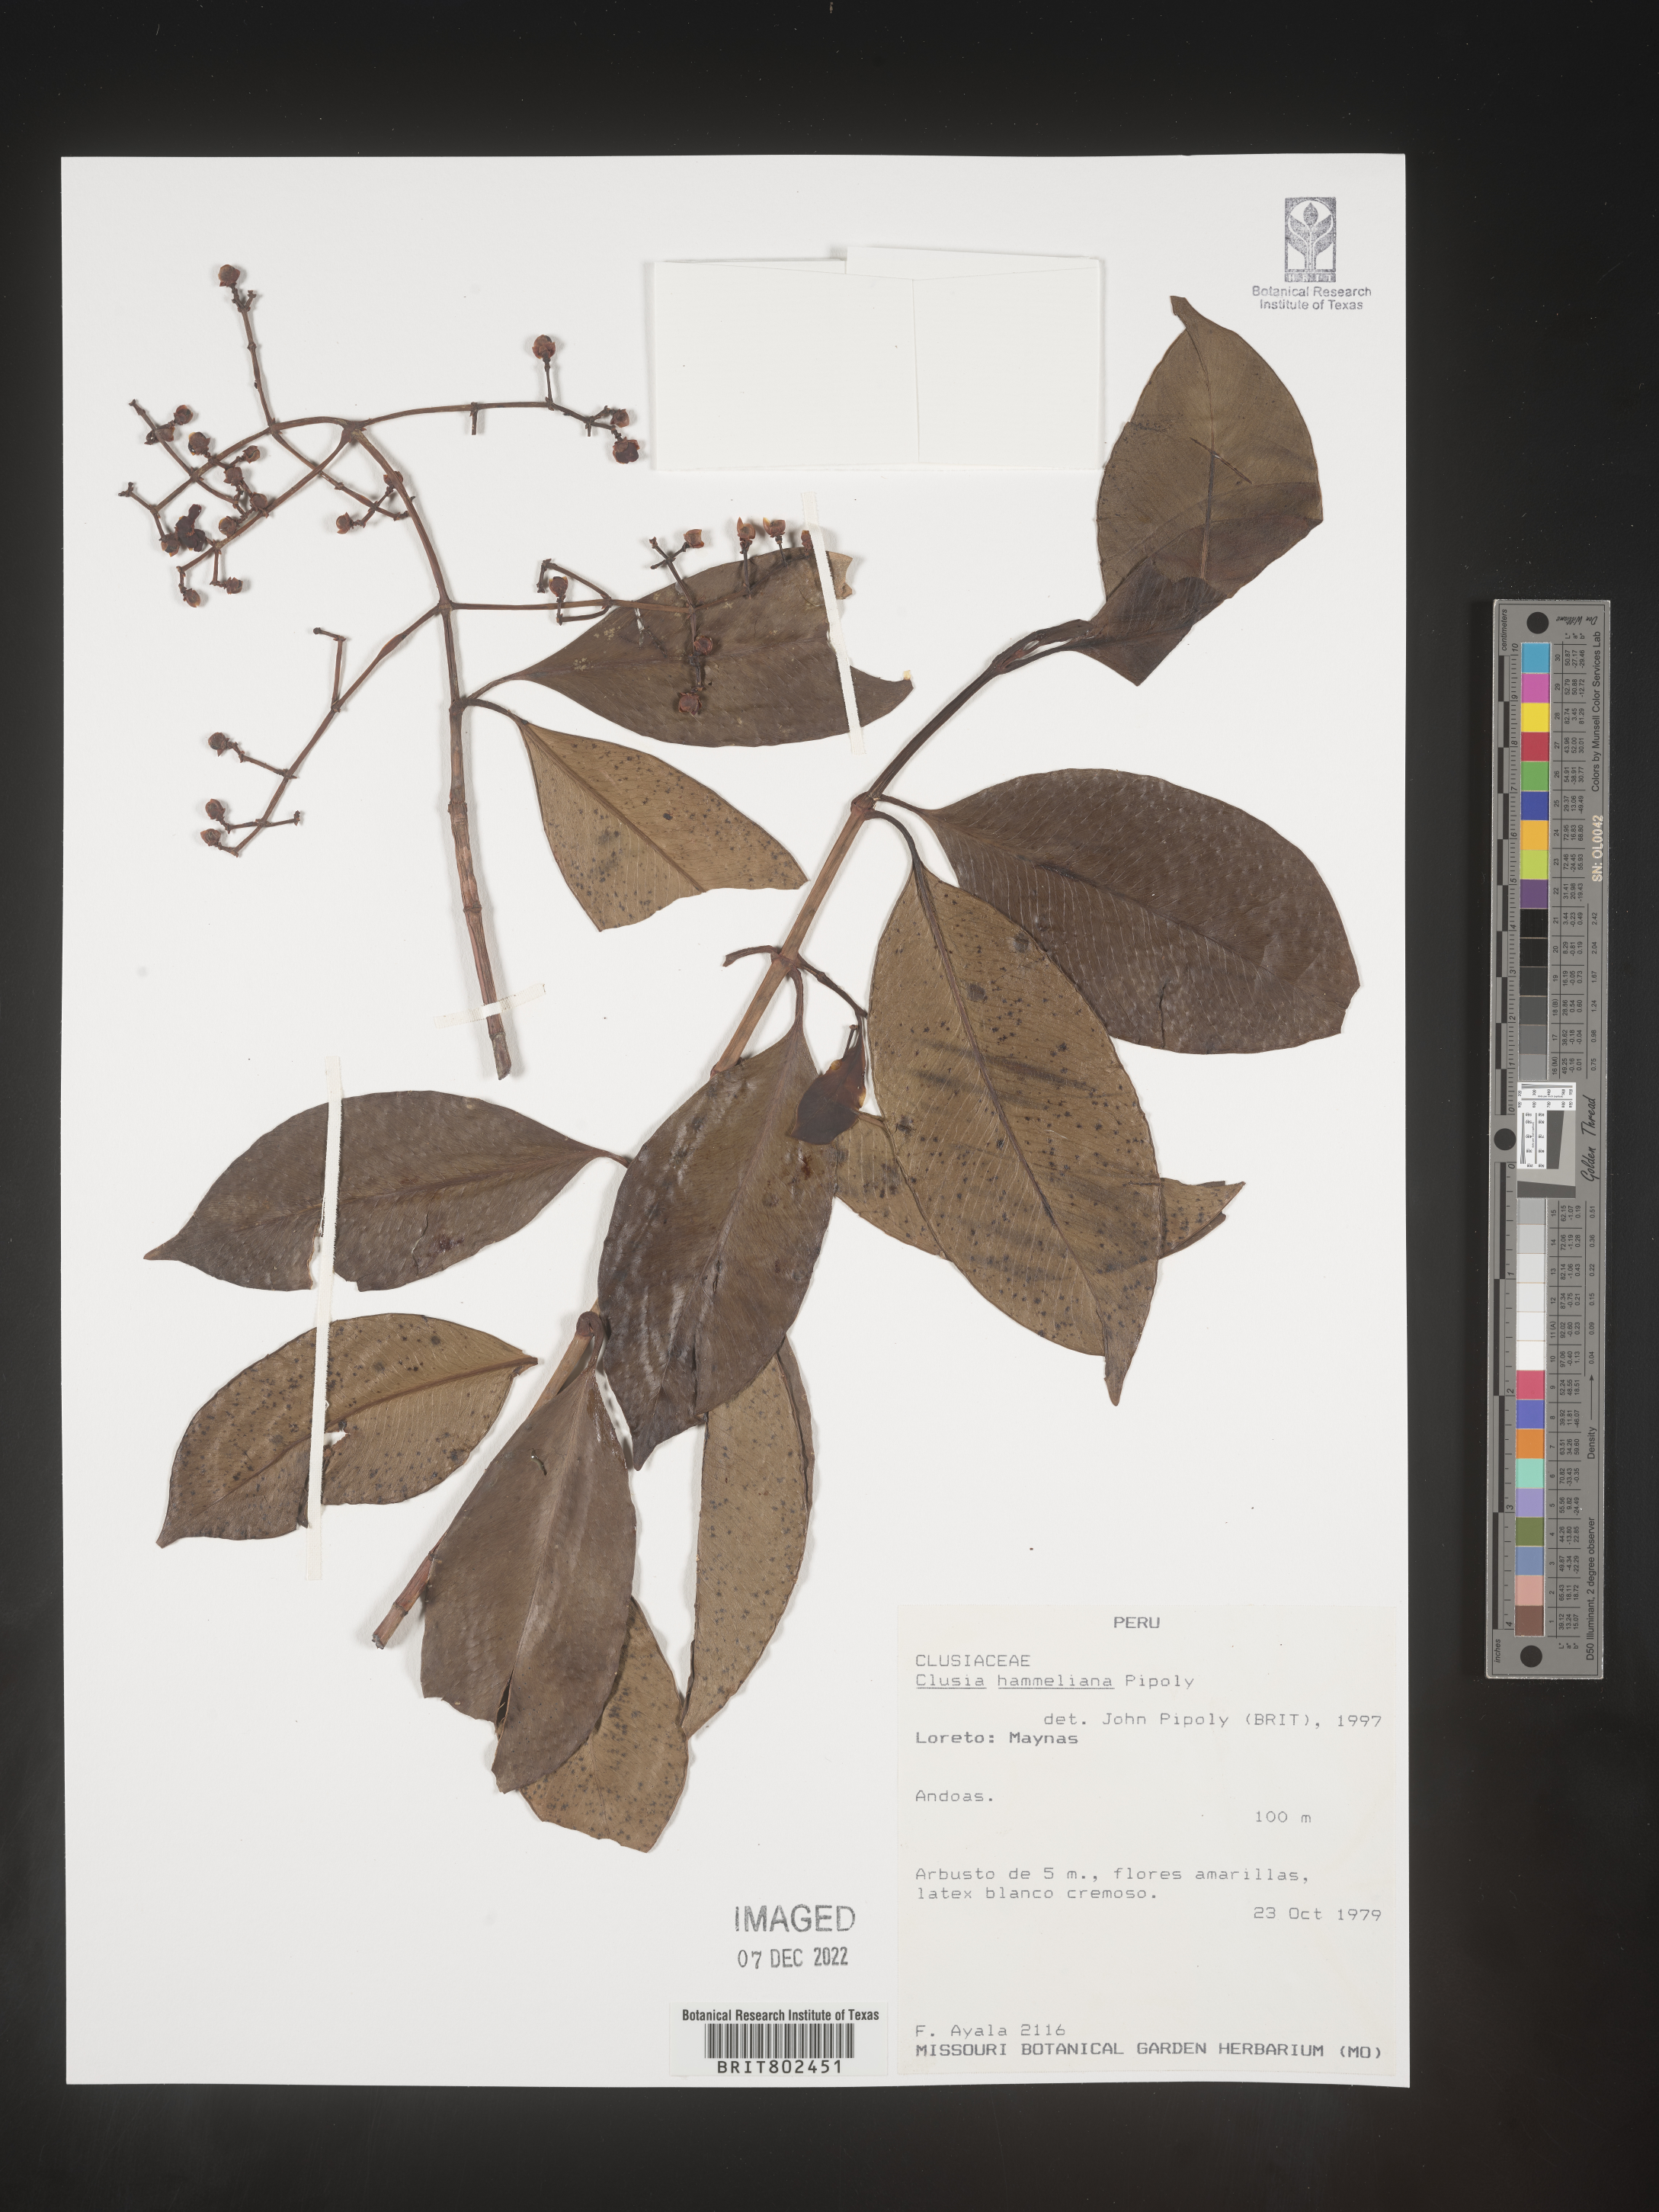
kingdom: Plantae
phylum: Tracheophyta
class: Magnoliopsida
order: Malpighiales
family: Clusiaceae
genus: Clusia
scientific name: Clusia hammeliana
